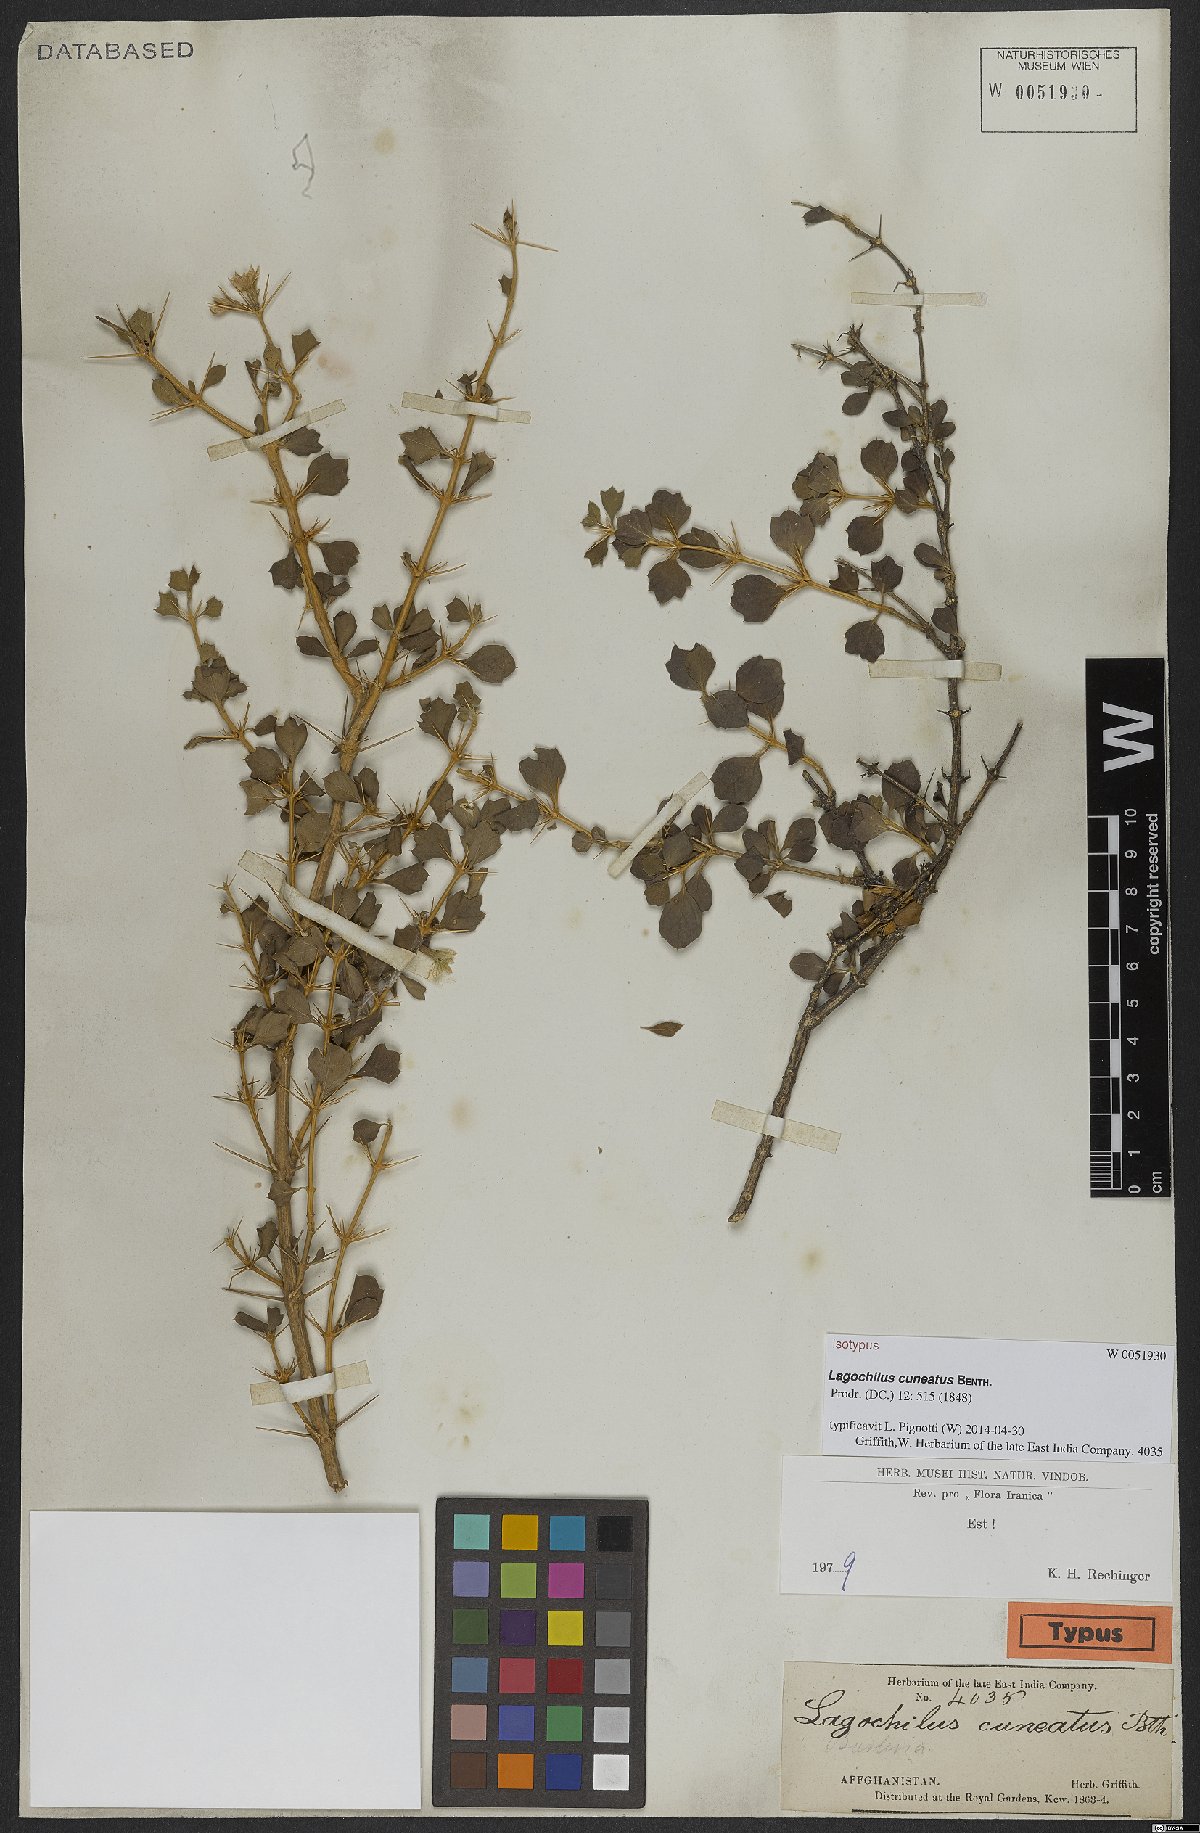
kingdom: Plantae
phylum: Tracheophyta
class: Magnoliopsida
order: Lamiales
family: Lamiaceae
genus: Lagochilus
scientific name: Lagochilus cuneatus
